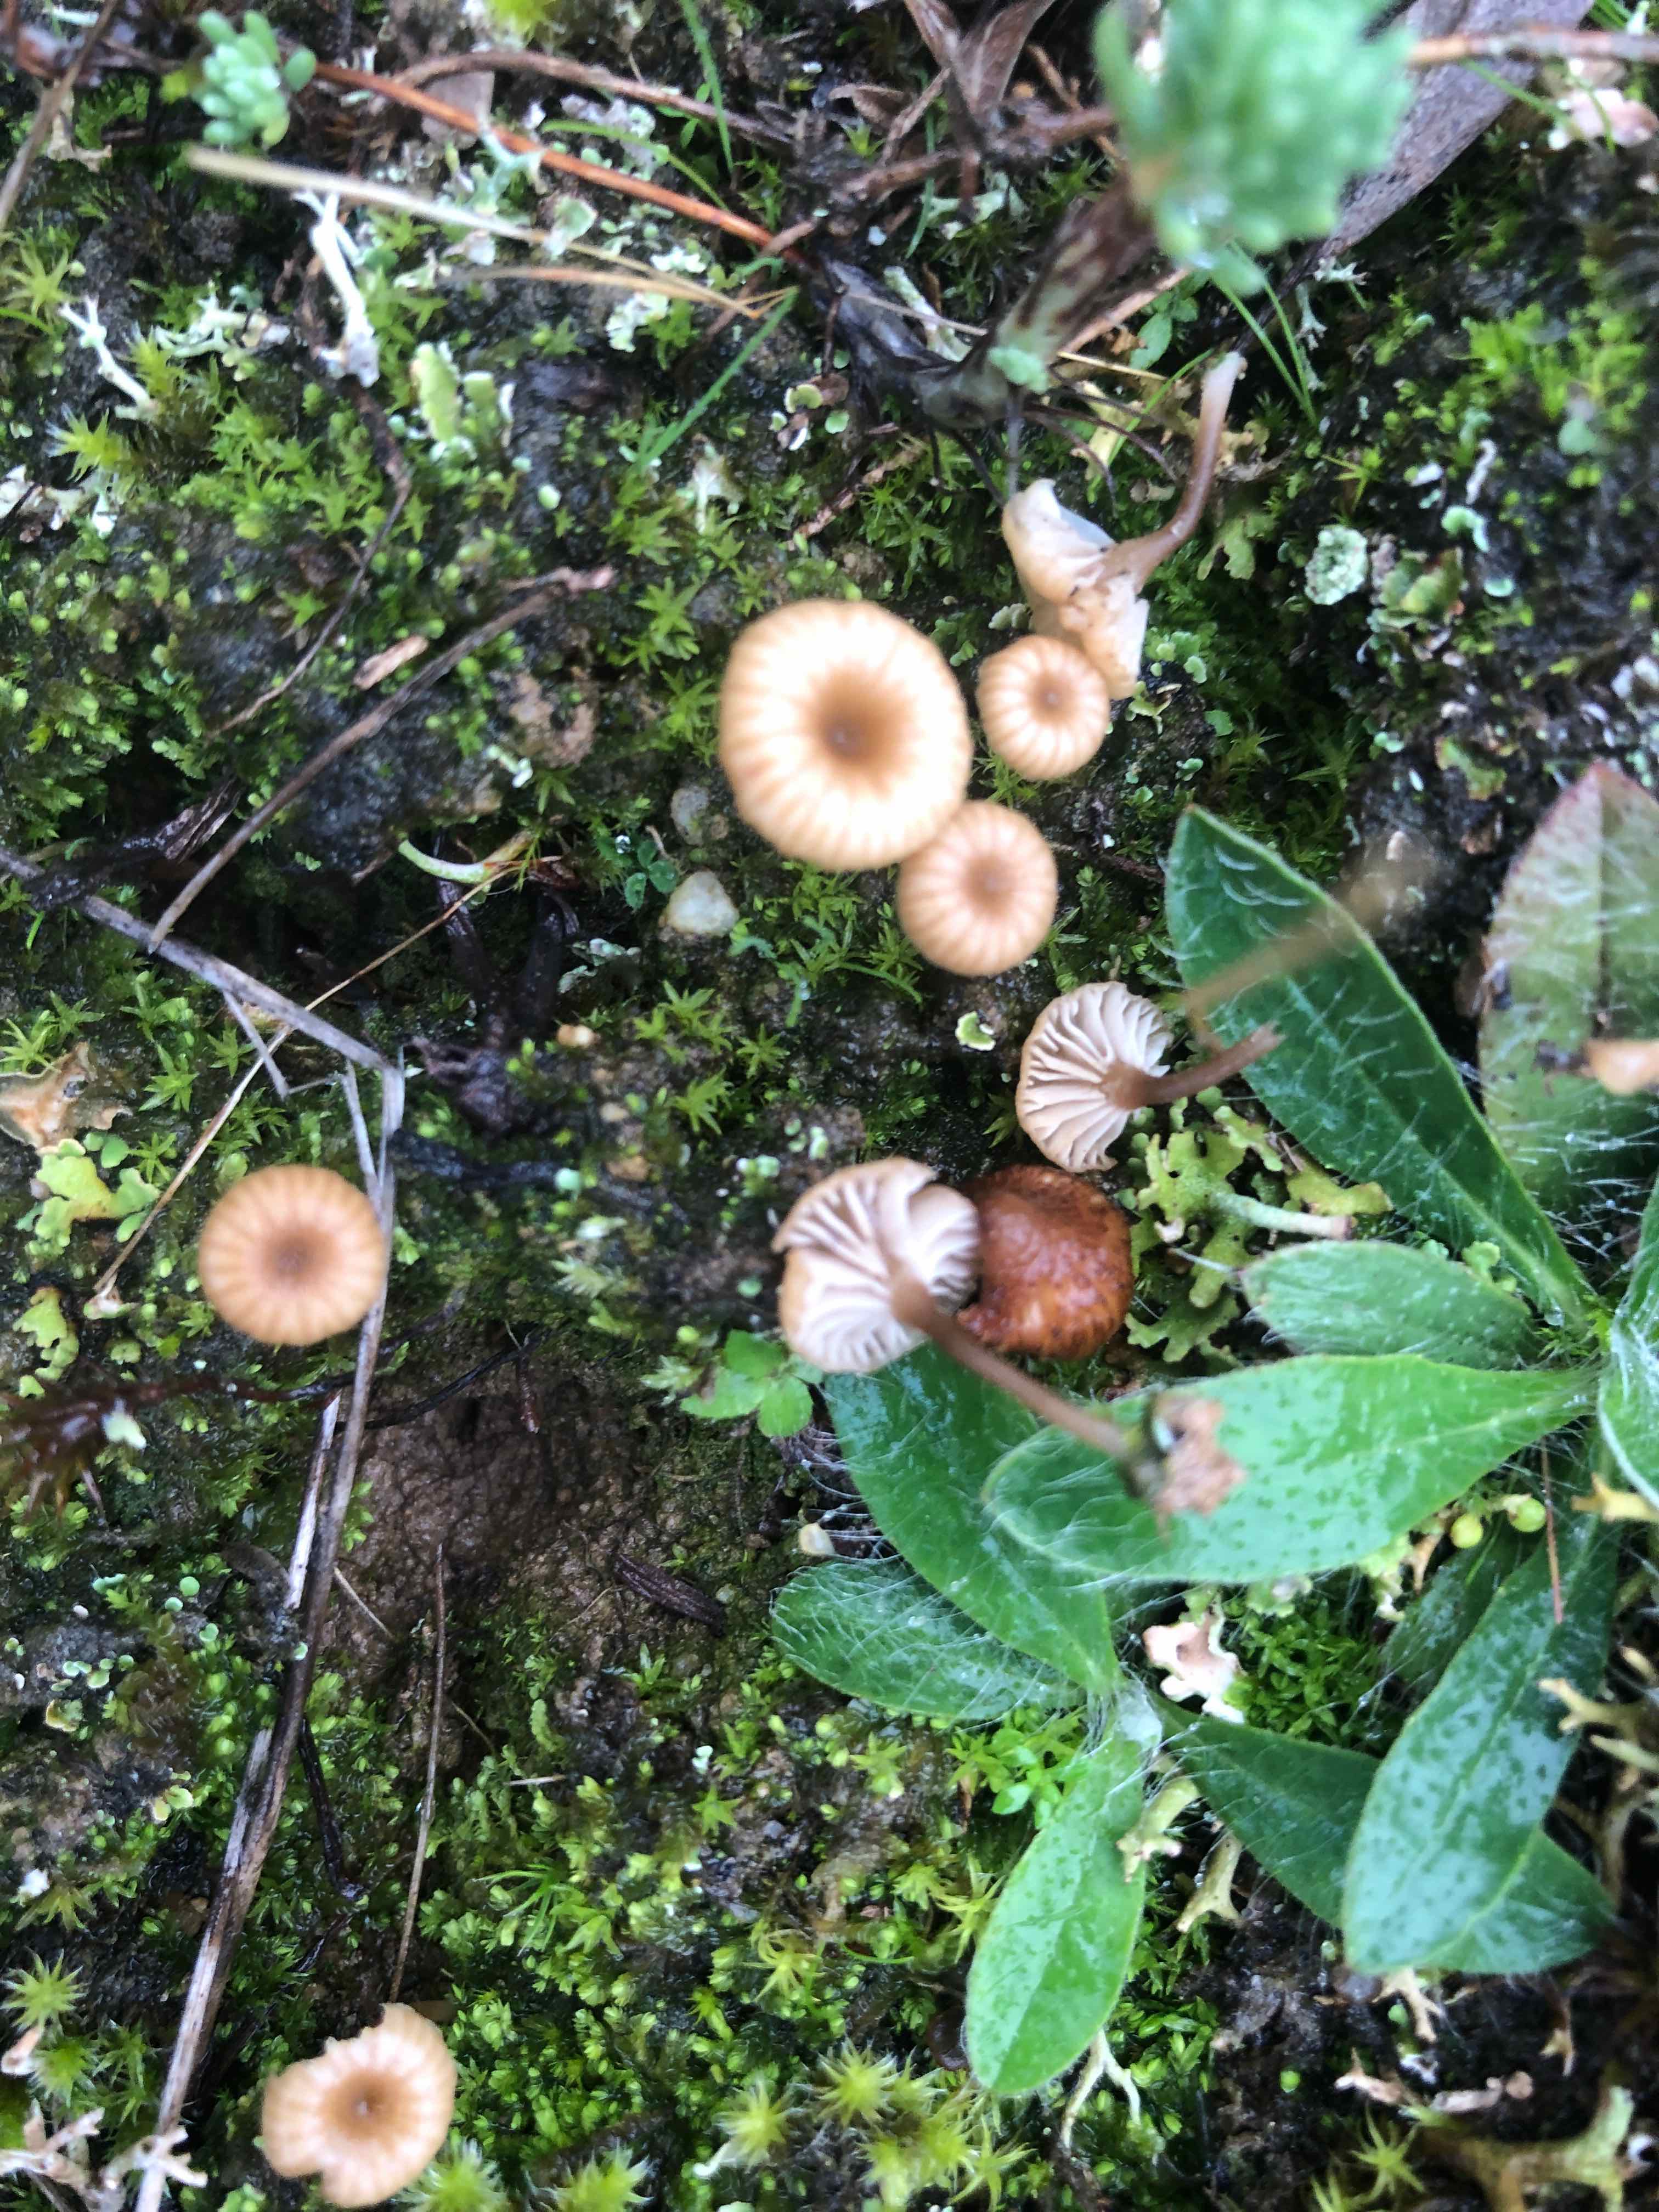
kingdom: Fungi
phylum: Basidiomycota
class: Agaricomycetes
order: Agaricales
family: Tricholomataceae
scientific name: Tricholomataceae
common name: ridderhatfamilien
